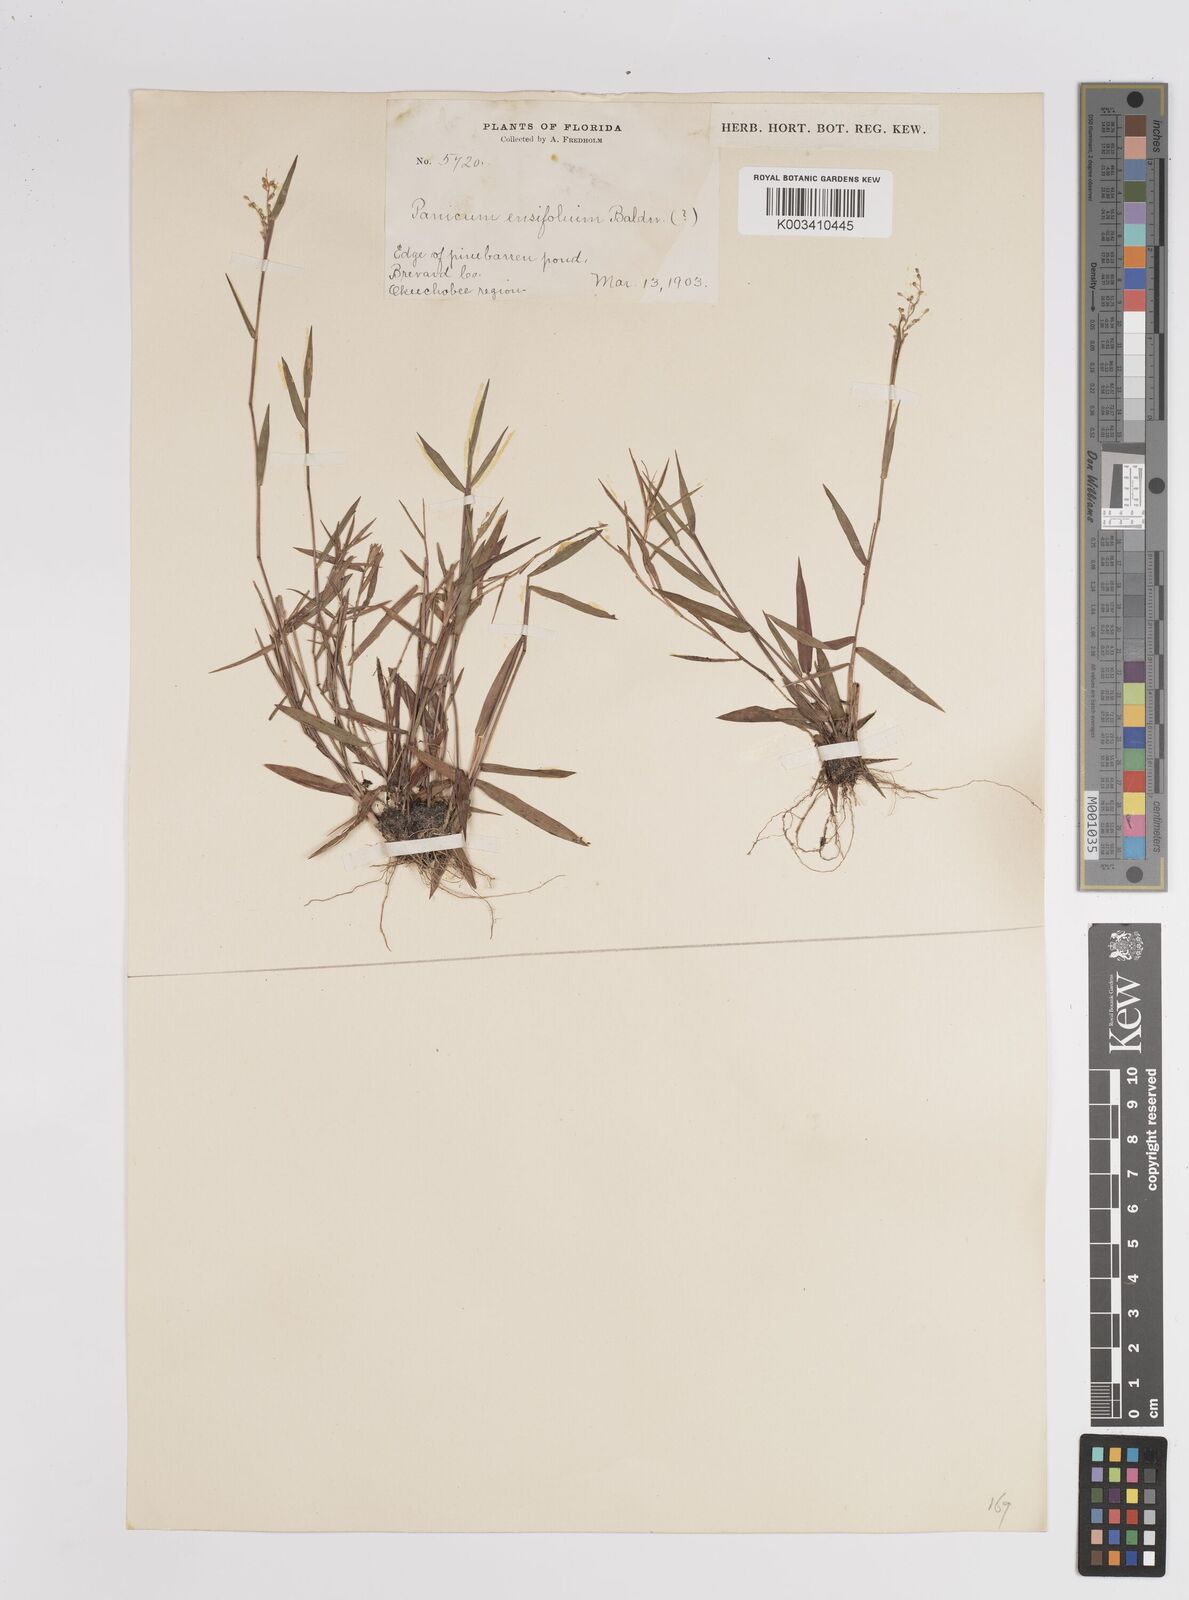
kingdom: Plantae
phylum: Tracheophyta
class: Liliopsida
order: Poales
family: Poaceae
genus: Dichanthelium
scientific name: Dichanthelium ensifolium
